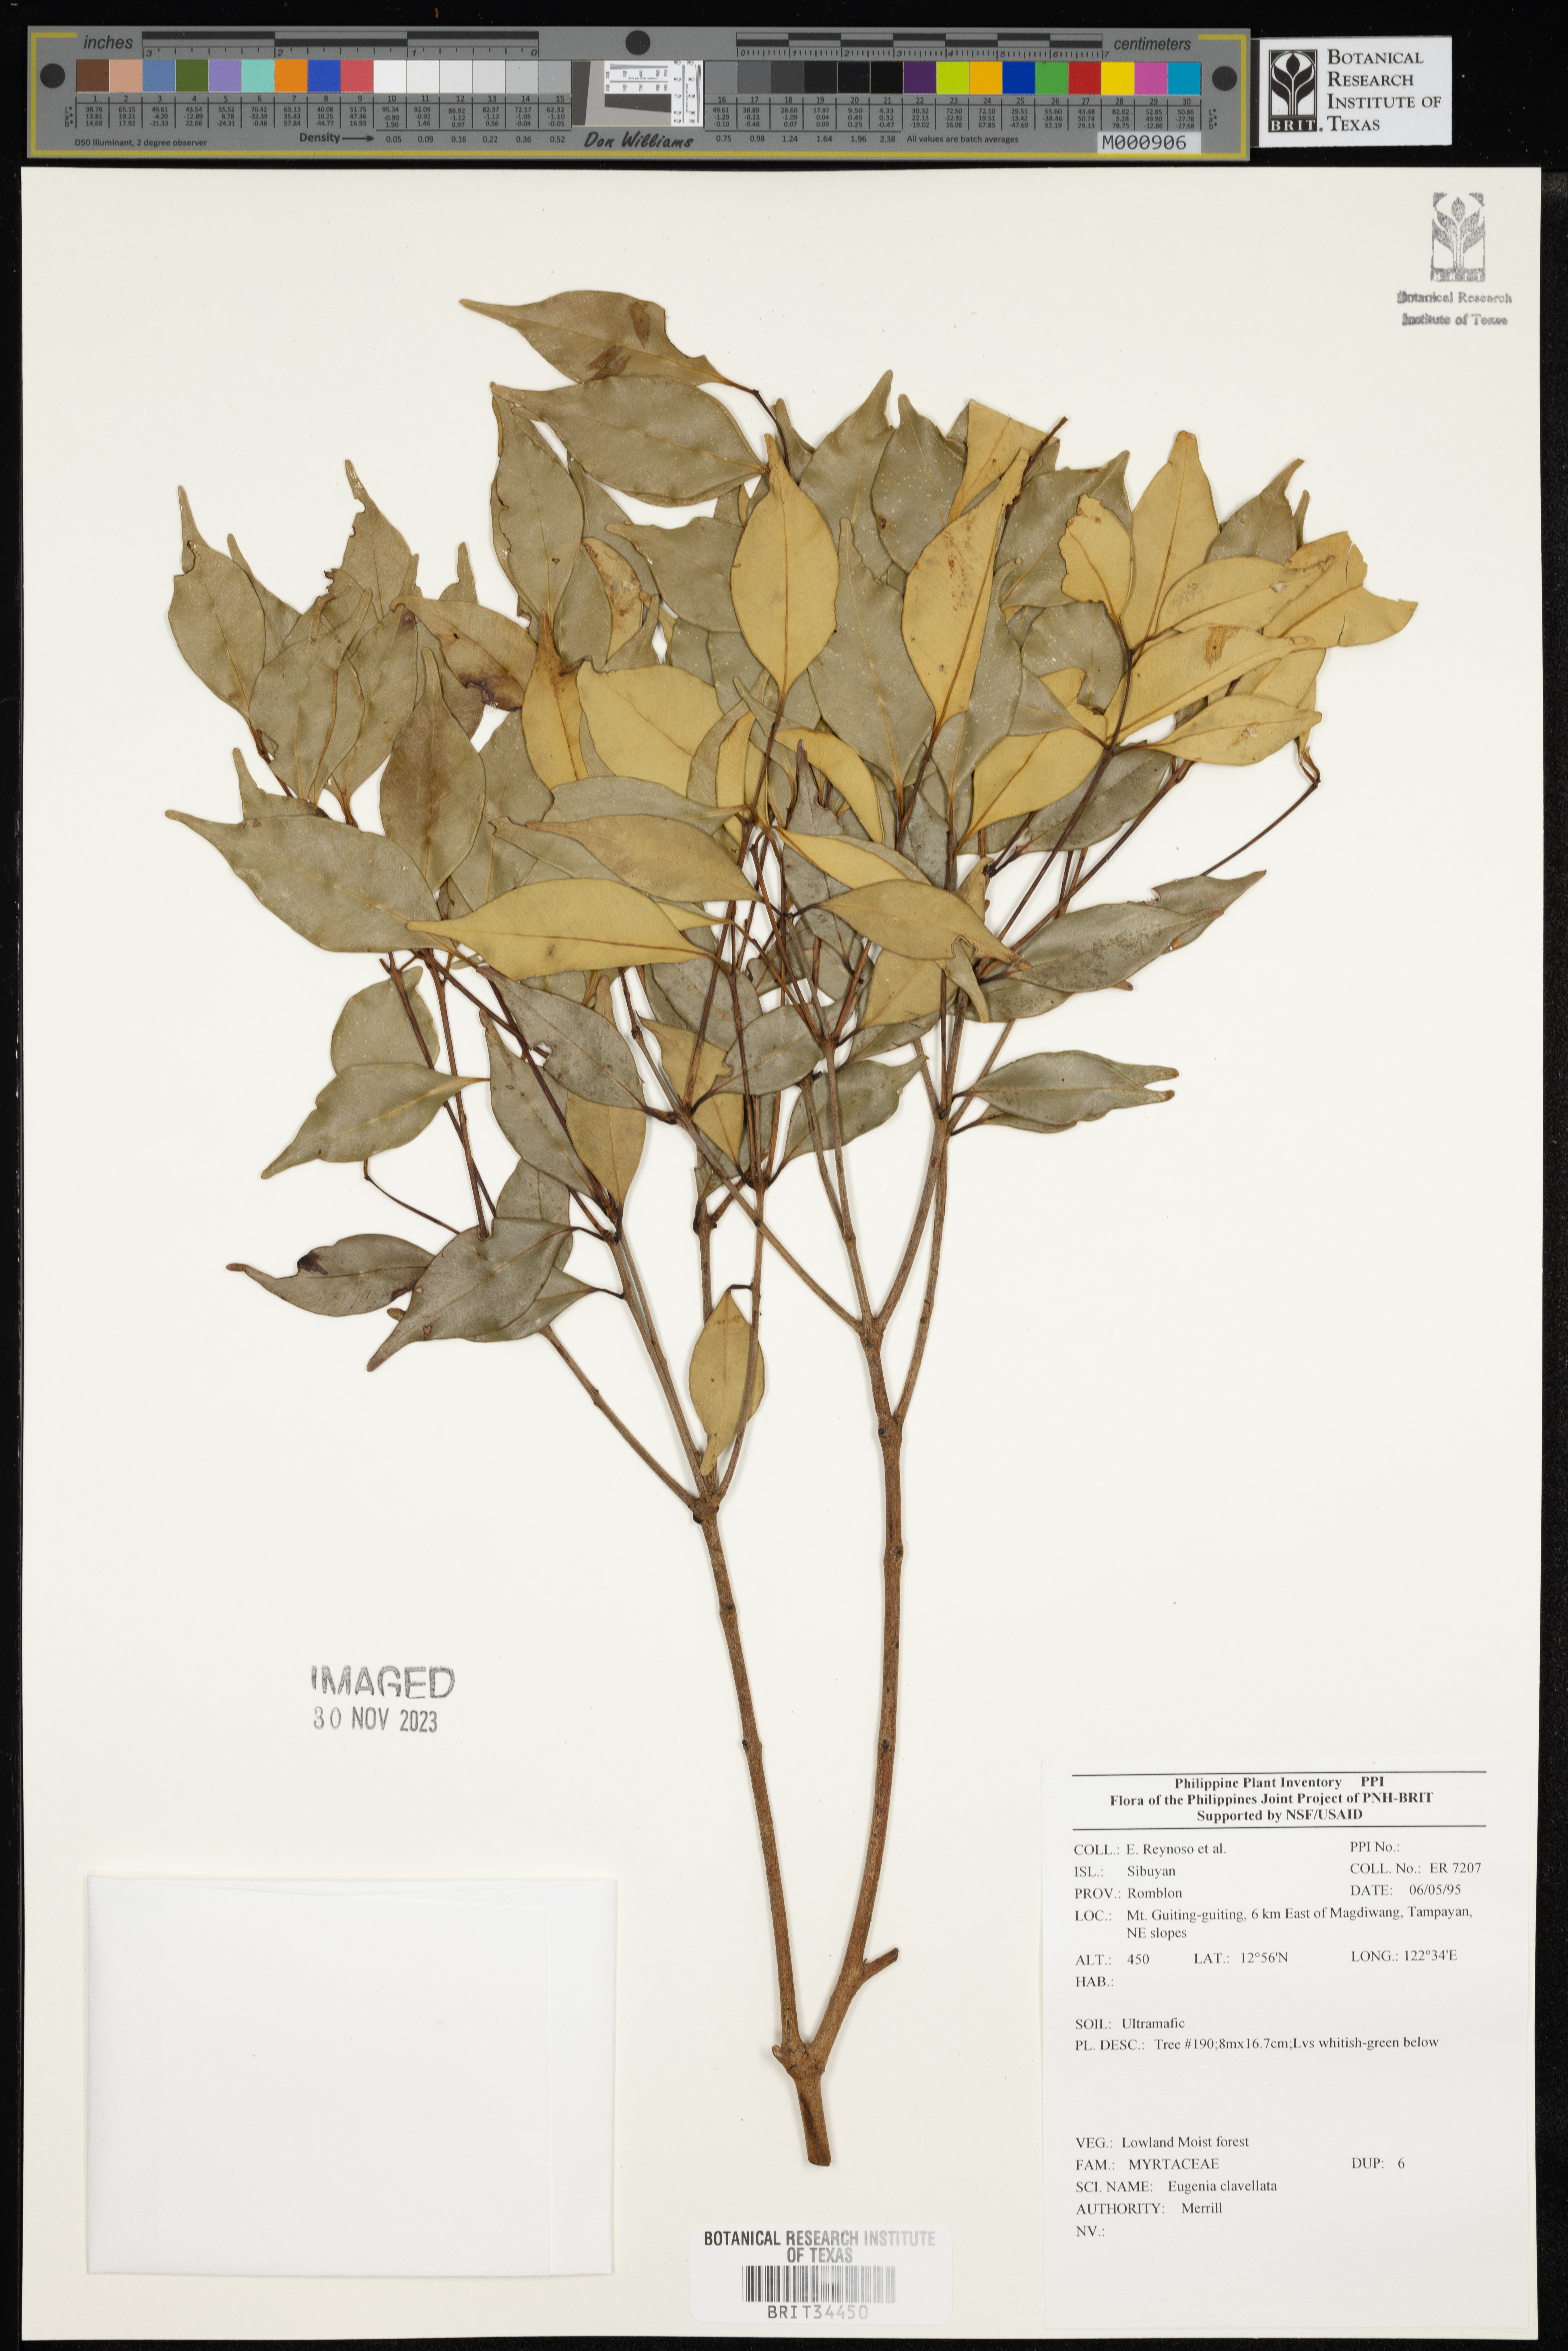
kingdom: Plantae
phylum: Tracheophyta
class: Magnoliopsida
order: Myrtales
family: Myrtaceae
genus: Eugenia
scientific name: Eugenia
